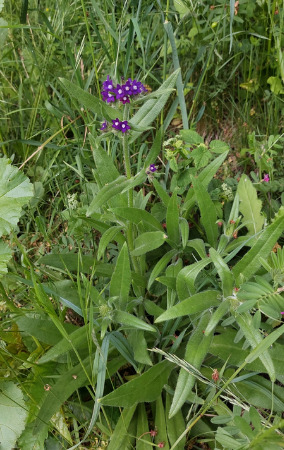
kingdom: Plantae
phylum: Tracheophyta
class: Magnoliopsida
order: Boraginales
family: Boraginaceae
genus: Anchusa
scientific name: Anchusa officinalis
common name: Læge-oksetunge
